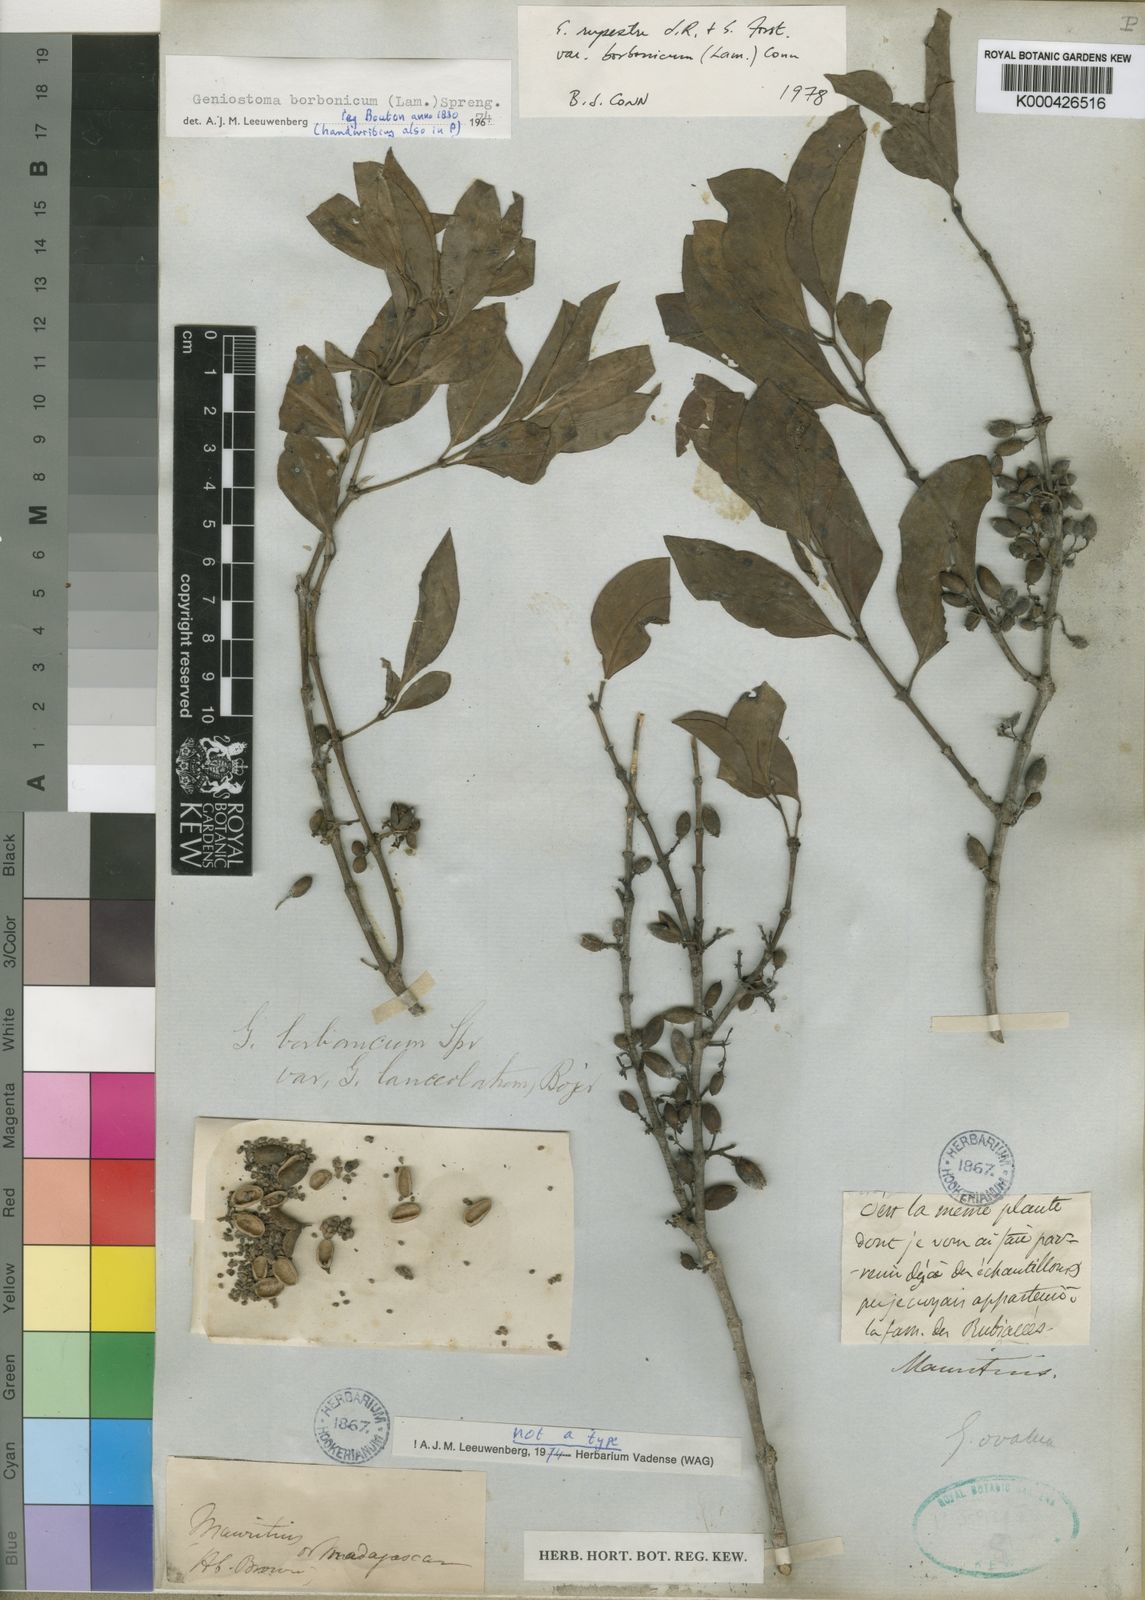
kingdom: Plantae
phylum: Tracheophyta
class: Magnoliopsida
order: Gentianales
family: Loganiaceae
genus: Geniostoma
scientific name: Geniostoma borbonicum
